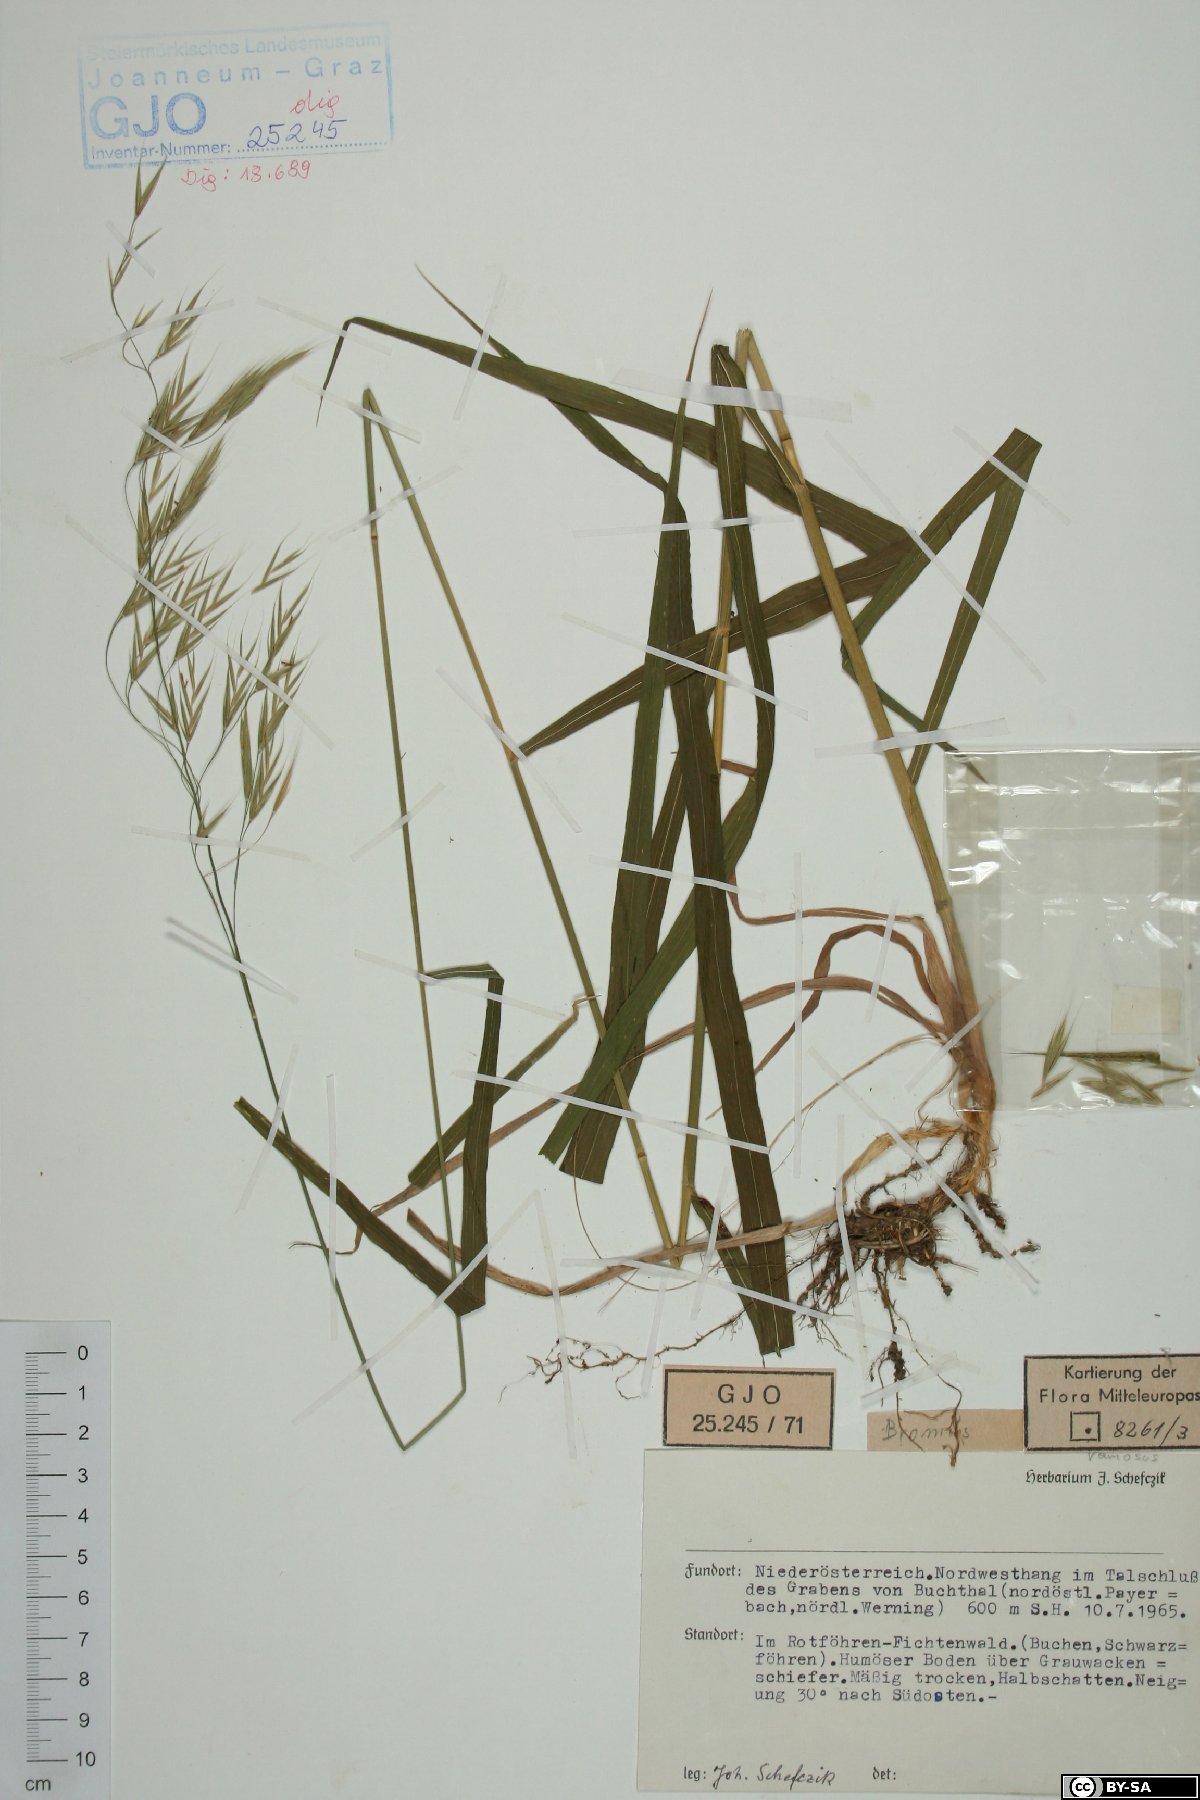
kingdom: Plantae
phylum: Tracheophyta
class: Liliopsida
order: Poales
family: Poaceae
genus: Bromus
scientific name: Bromus ramosus
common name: Hairy brome
